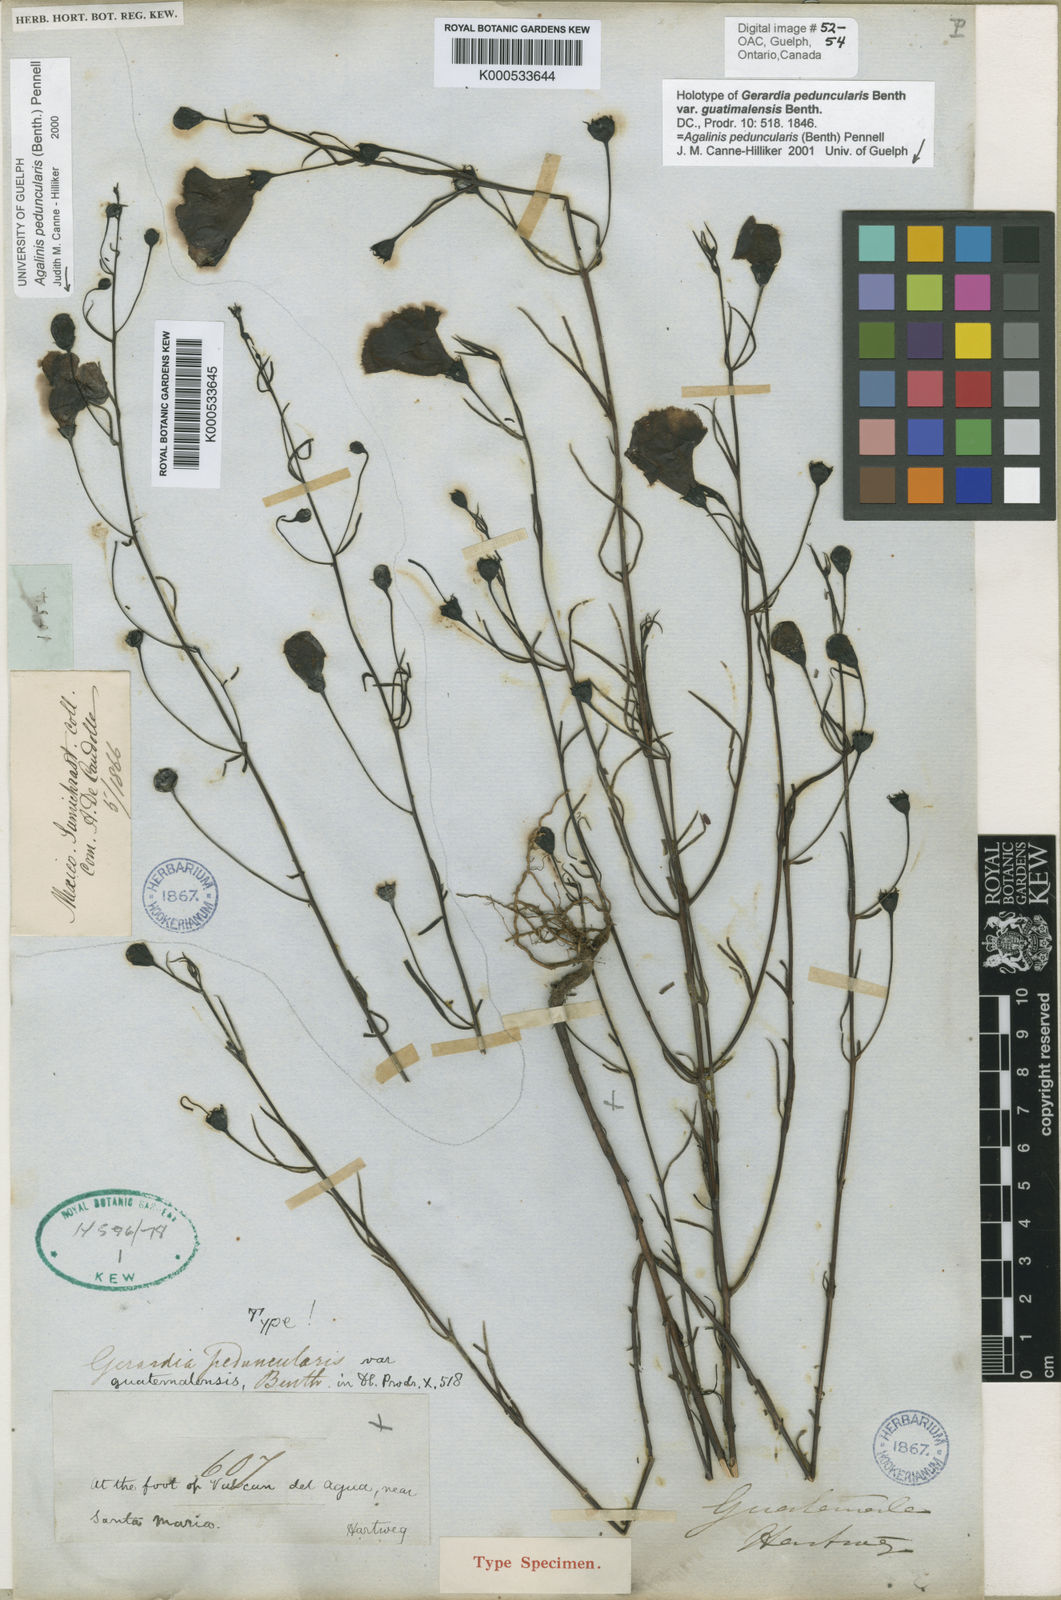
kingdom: Plantae
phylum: Tracheophyta
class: Magnoliopsida
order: Lamiales
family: Orobanchaceae
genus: Agalinis
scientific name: Agalinis peduncularis
